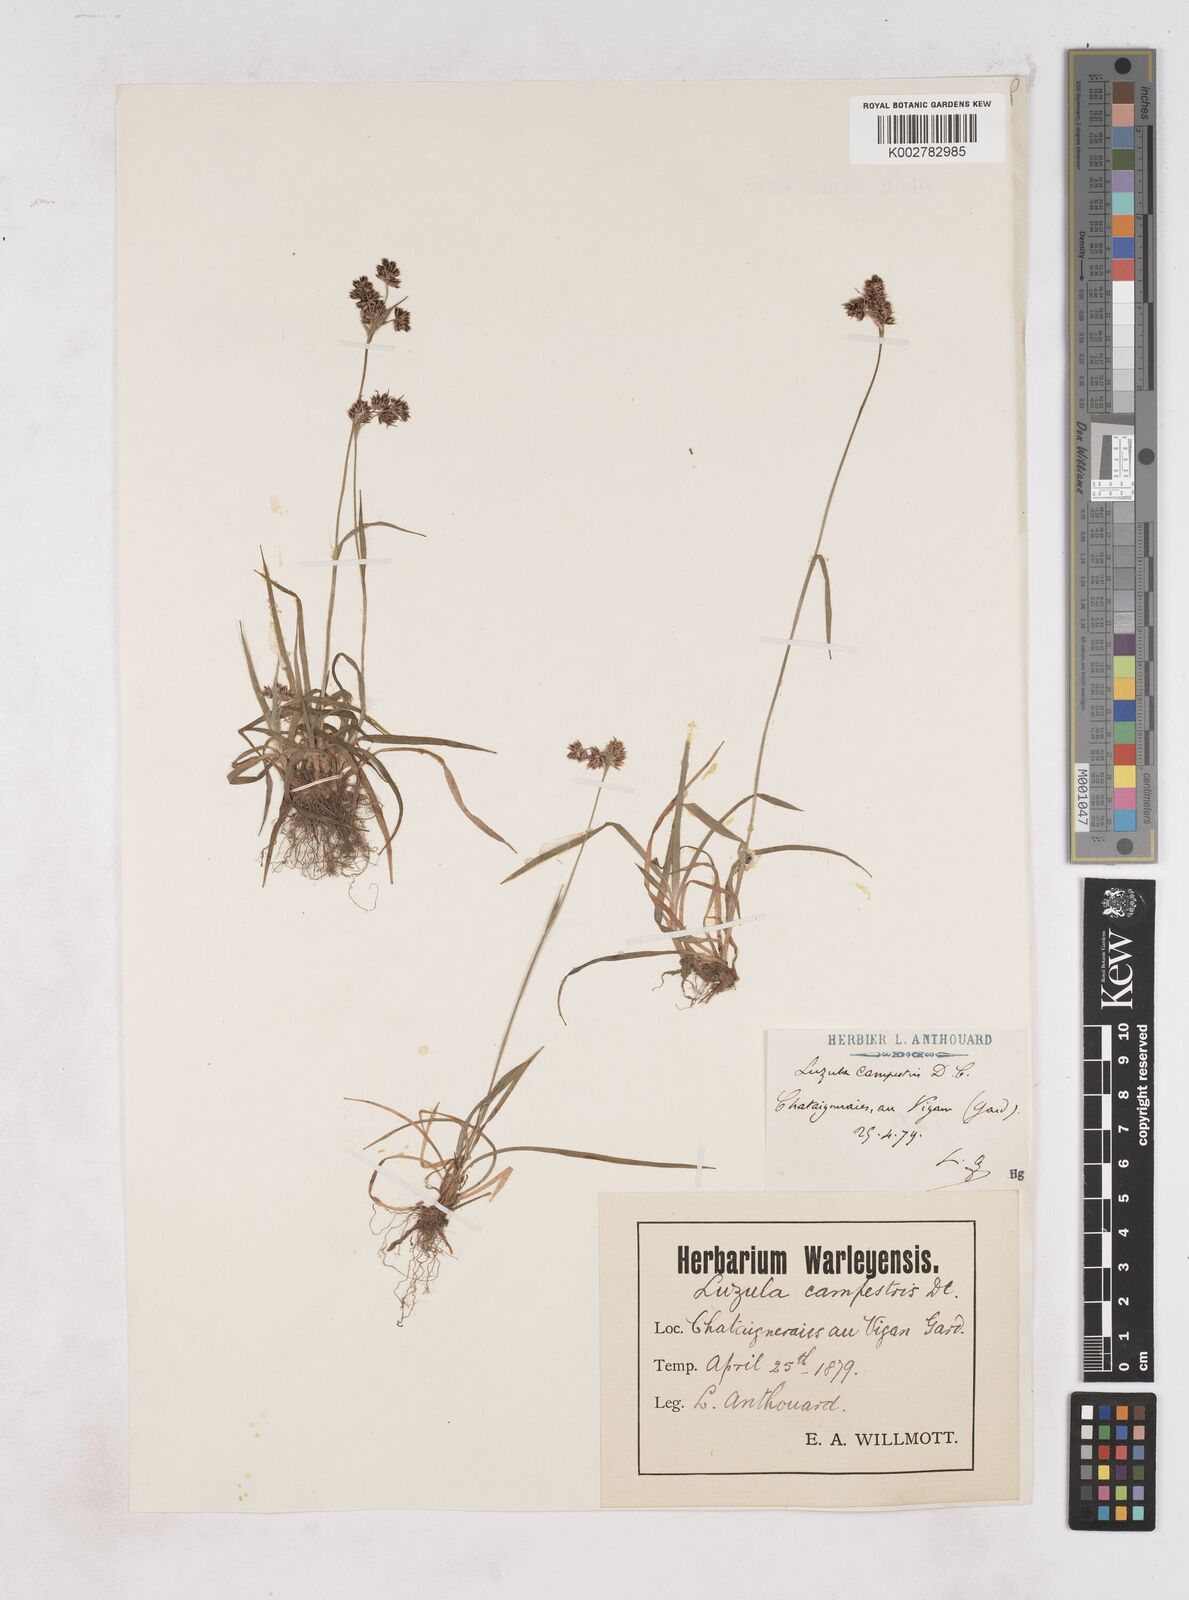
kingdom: Plantae
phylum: Tracheophyta
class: Liliopsida
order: Poales
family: Juncaceae
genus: Luzula
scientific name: Luzula campestris
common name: Field wood-rush
